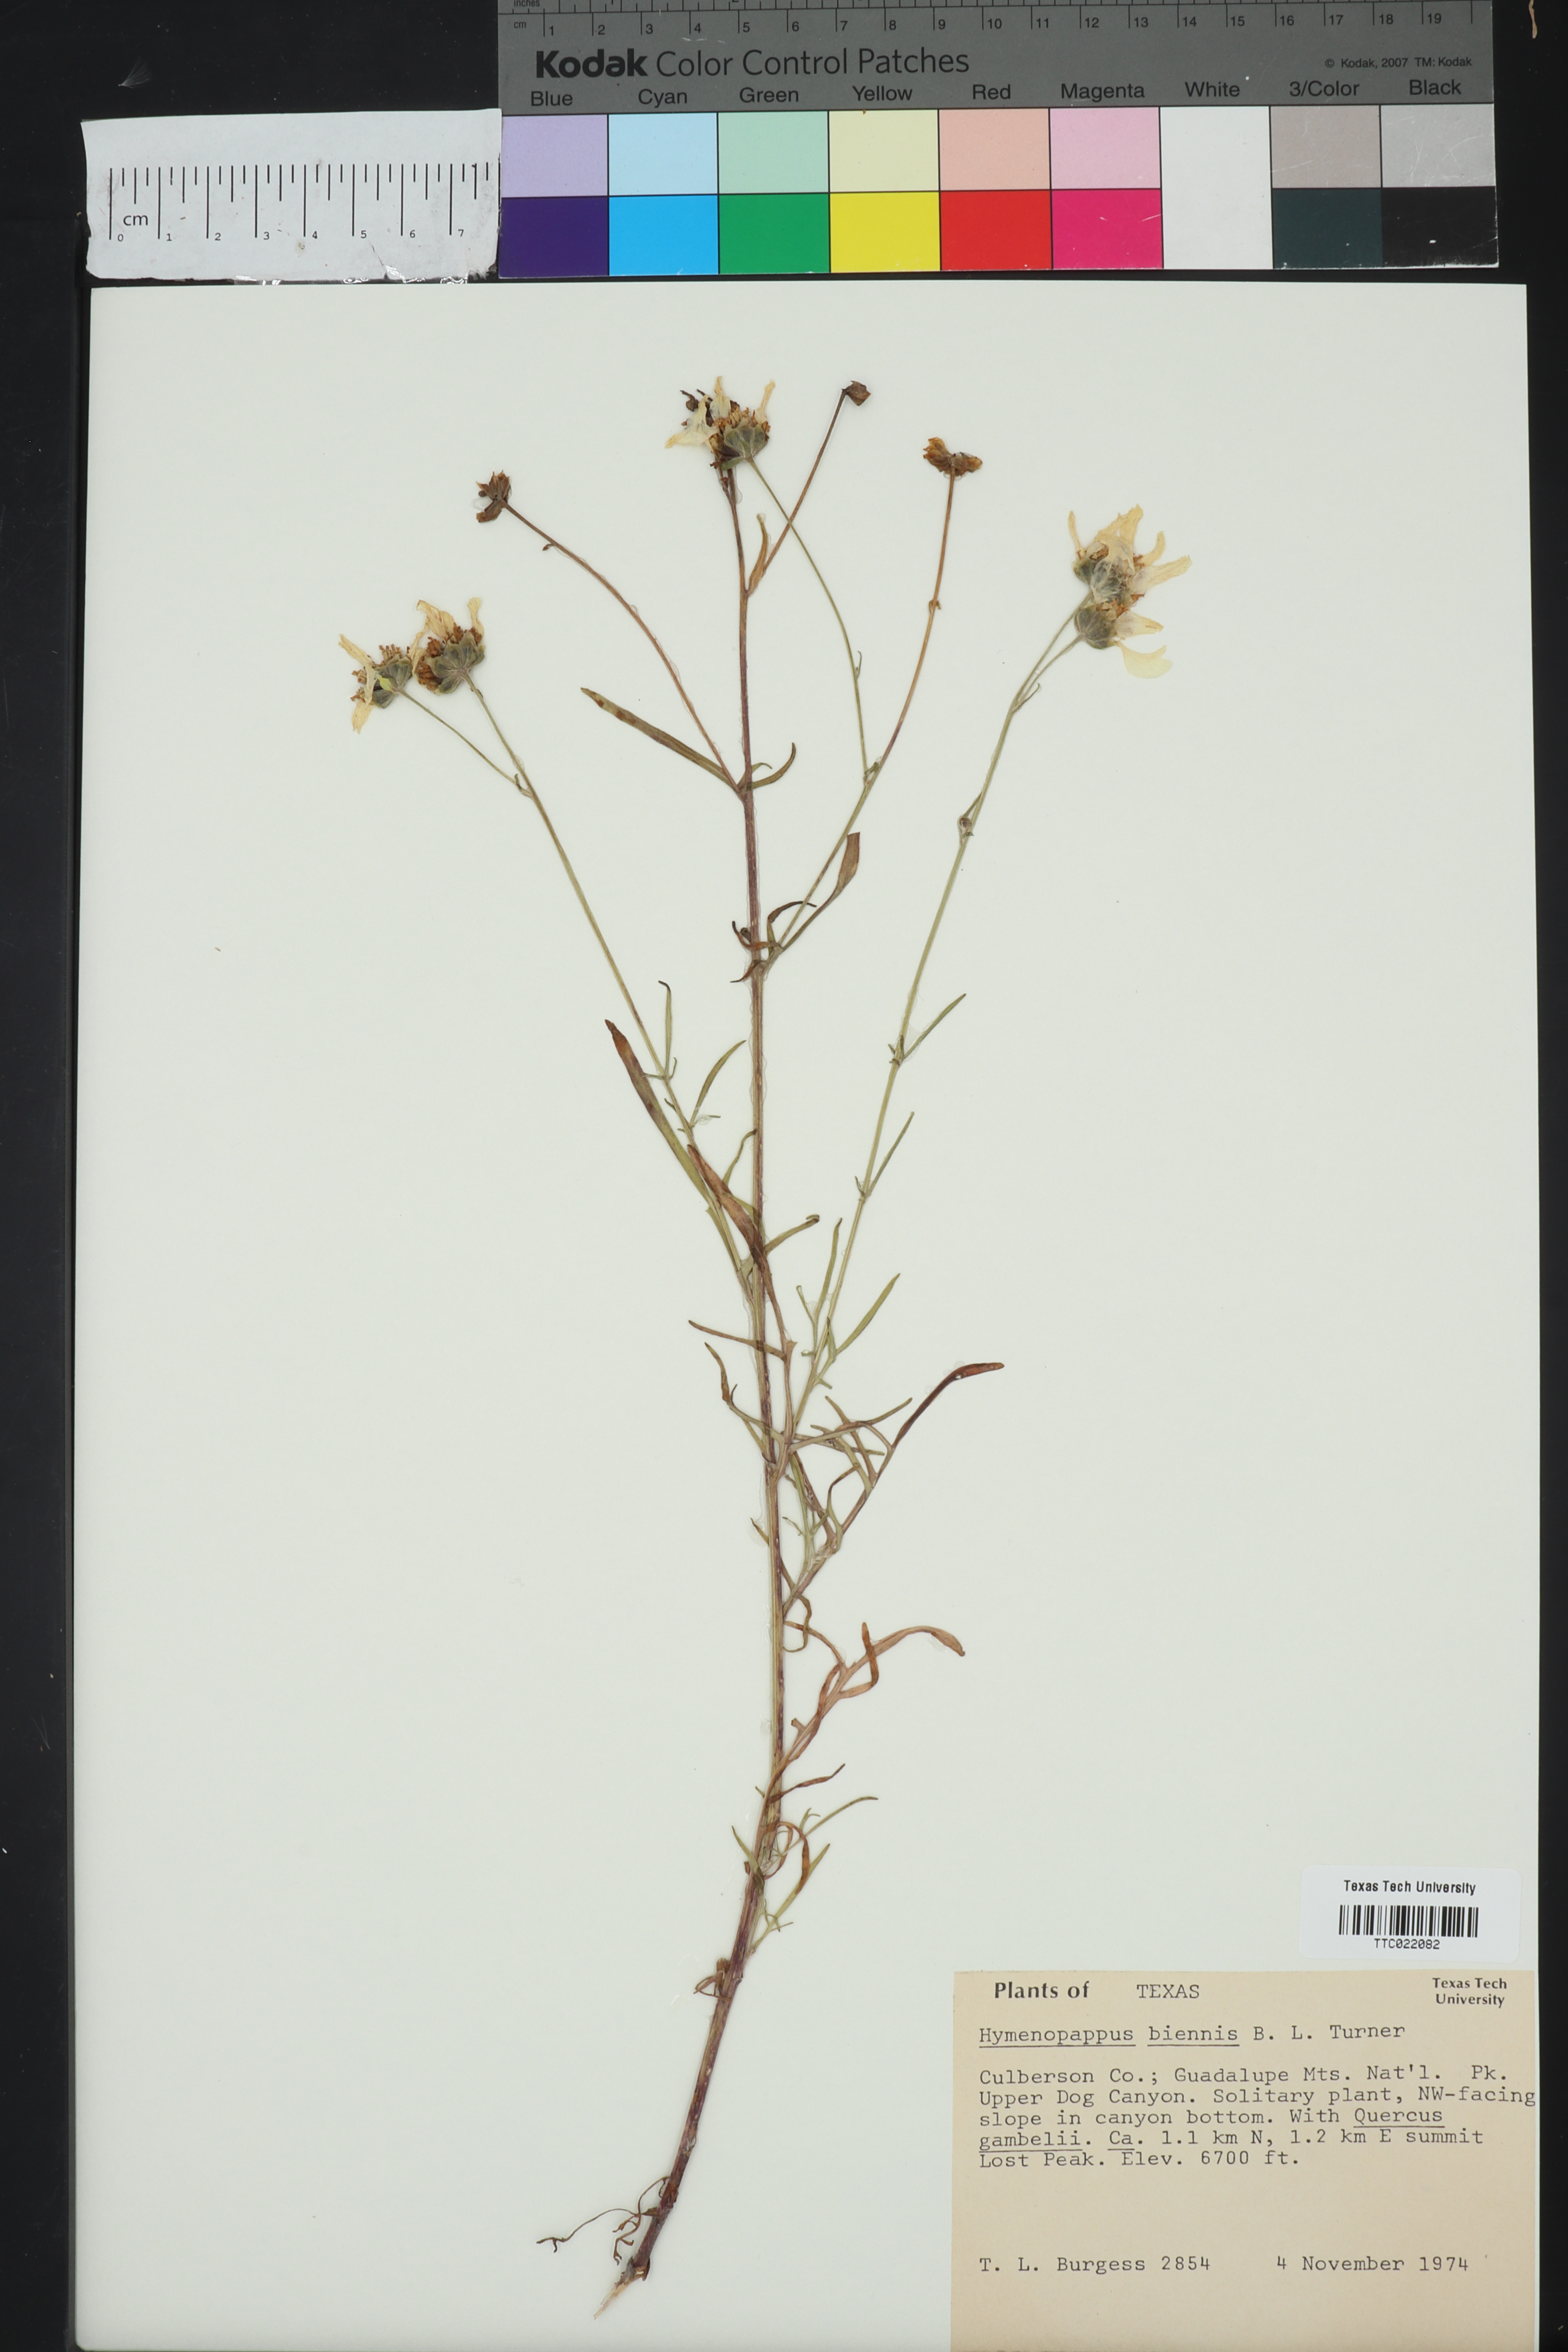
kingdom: Plantae
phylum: Tracheophyta
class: Magnoliopsida
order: Asterales
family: Asteraceae
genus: Hymenopappus
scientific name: Hymenopappus biennis
